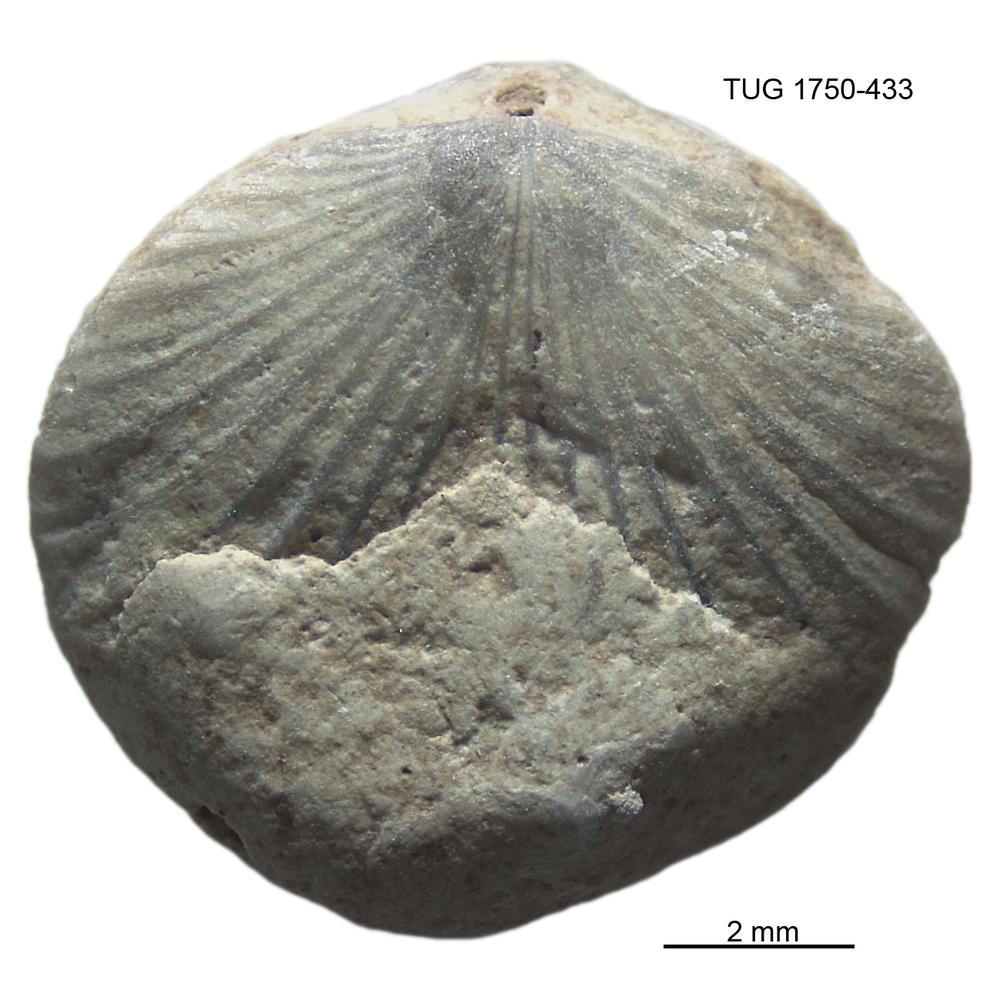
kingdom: Animalia
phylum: Brachiopoda
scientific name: Brachiopoda
